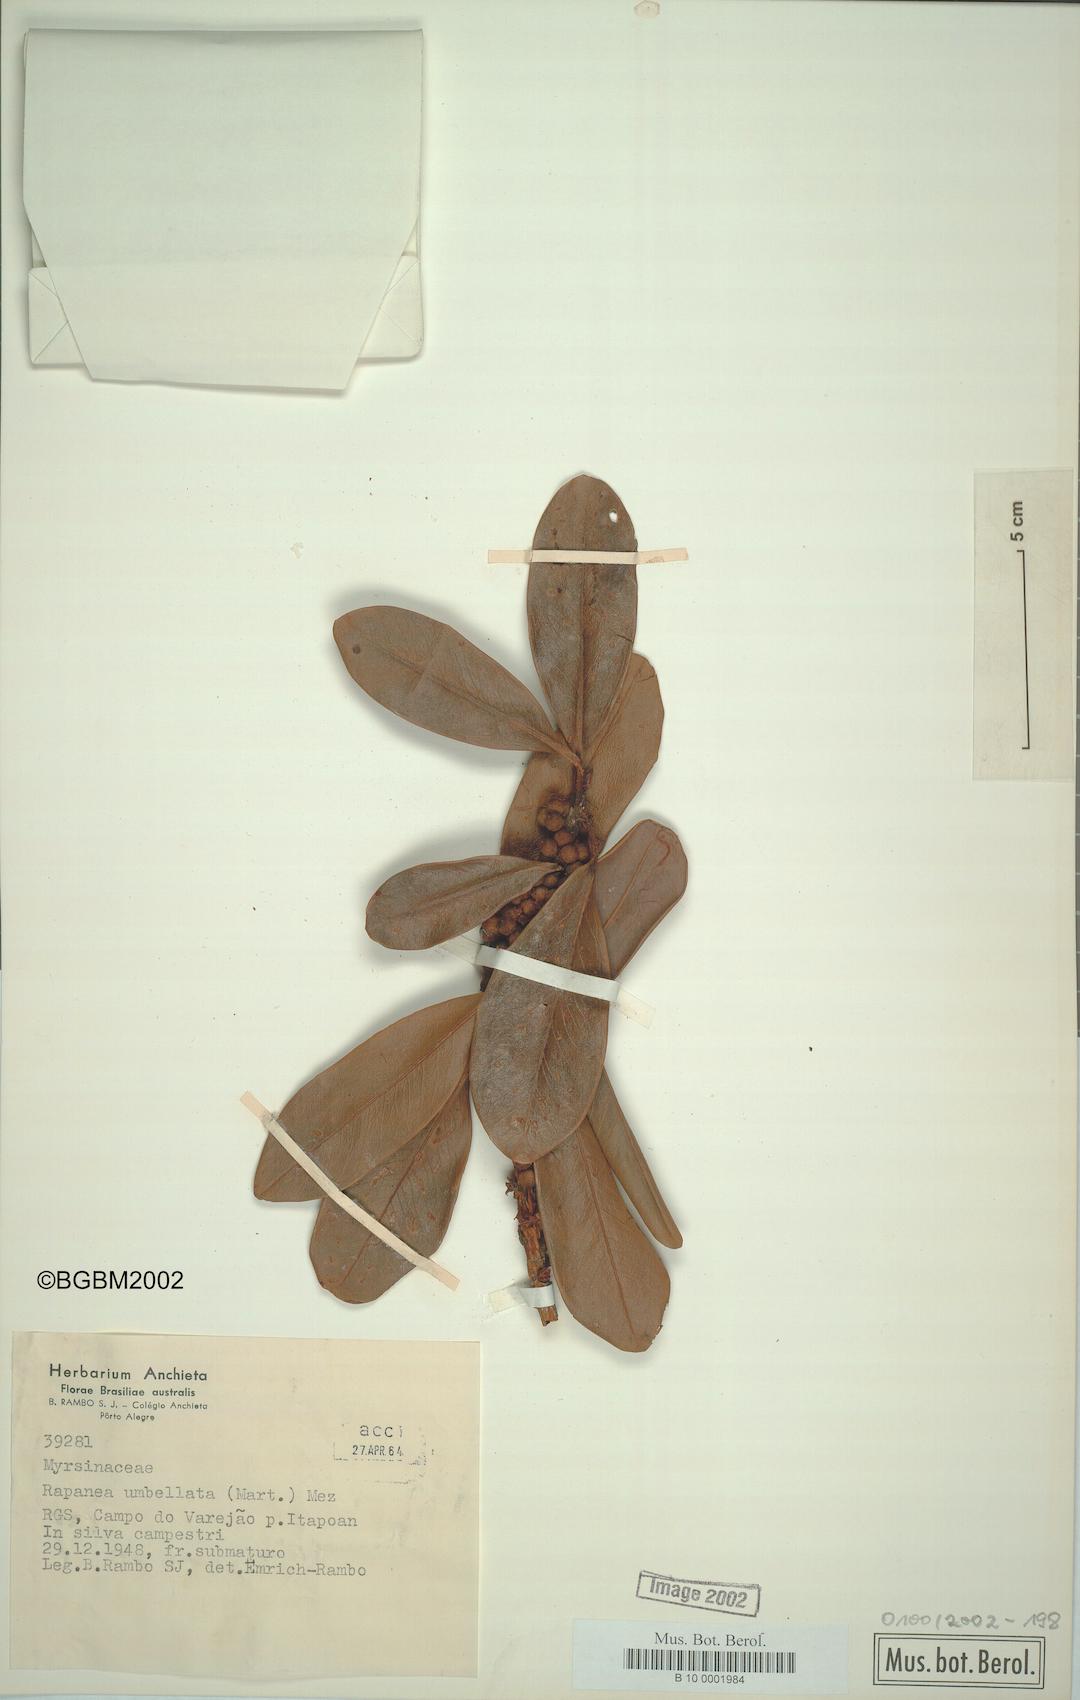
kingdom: Plantae
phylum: Tracheophyta
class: Magnoliopsida
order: Ericales
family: Primulaceae
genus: Myrsine
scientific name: Myrsine umbellata
